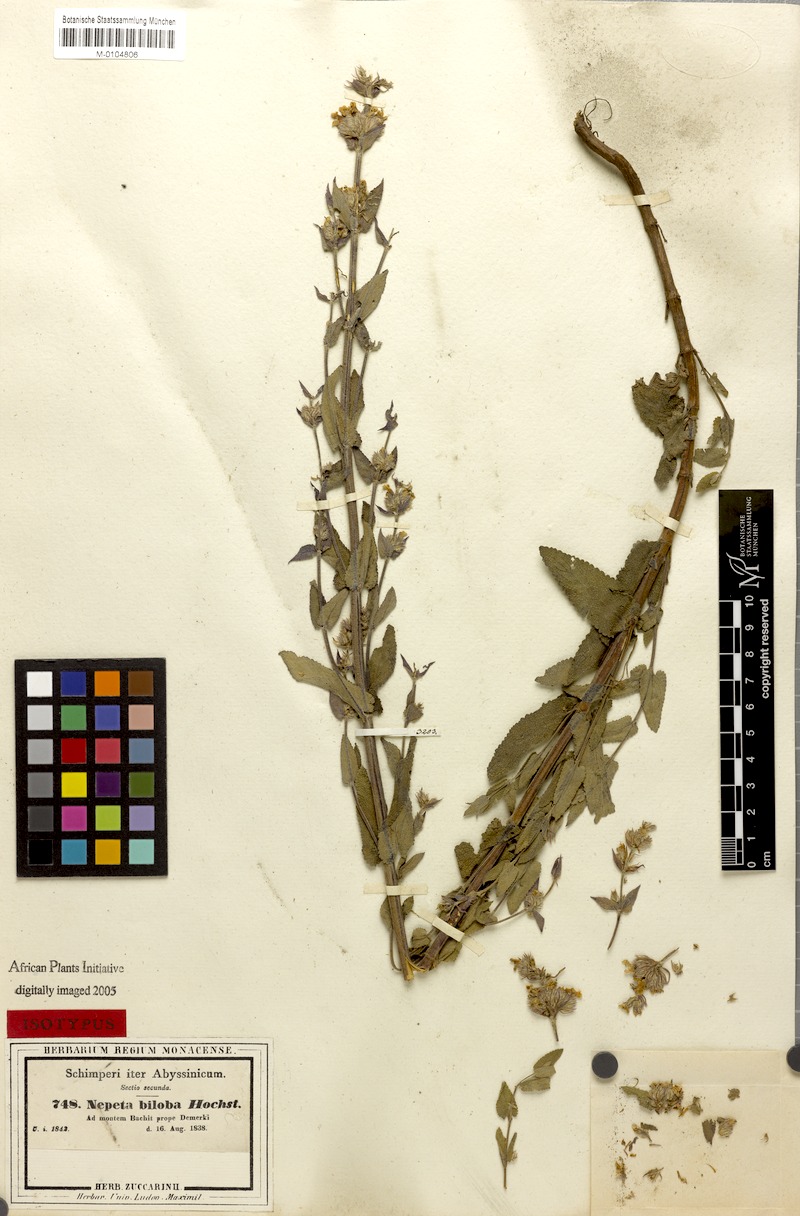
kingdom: Plantae
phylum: Tracheophyta
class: Magnoliopsida
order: Lamiales
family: Lamiaceae
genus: Nepeta
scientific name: Nepeta azurea
